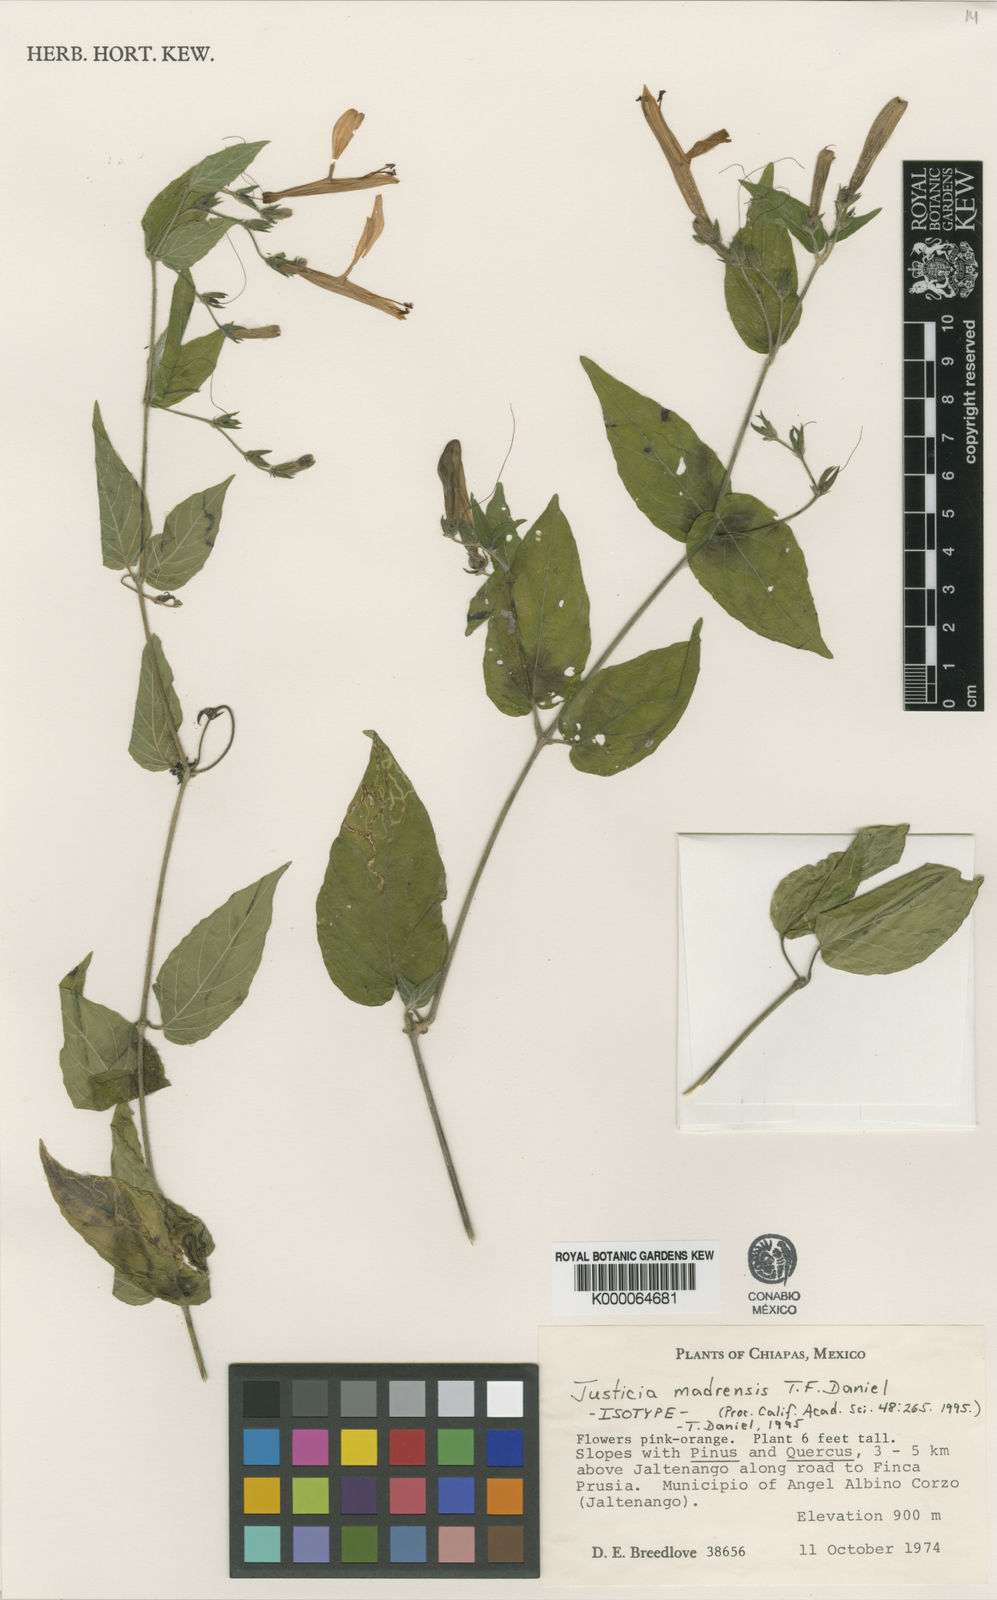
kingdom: Plantae
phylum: Tracheophyta
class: Magnoliopsida
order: Lamiales
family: Acanthaceae
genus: Justicia
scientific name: Justicia madrensis
